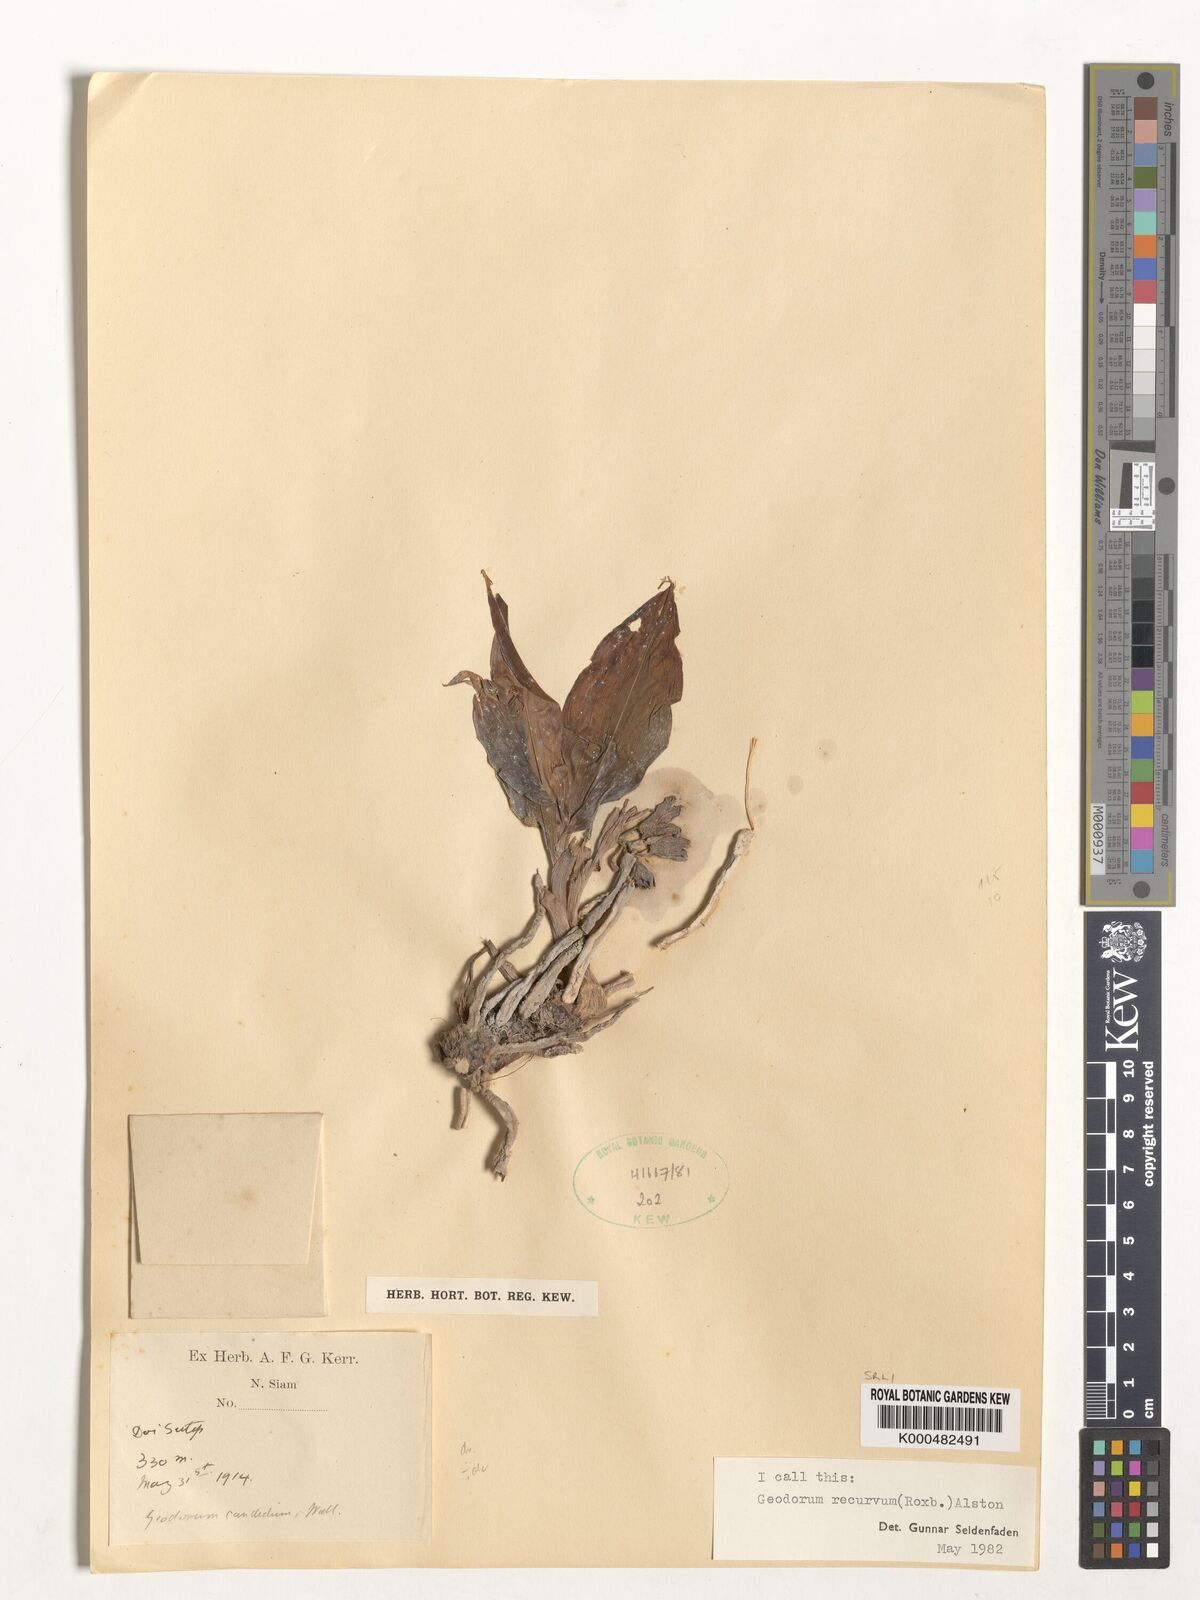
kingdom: Plantae
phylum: Tracheophyta
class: Liliopsida
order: Asparagales
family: Orchidaceae
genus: Eulophia
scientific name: Eulophia recurva
